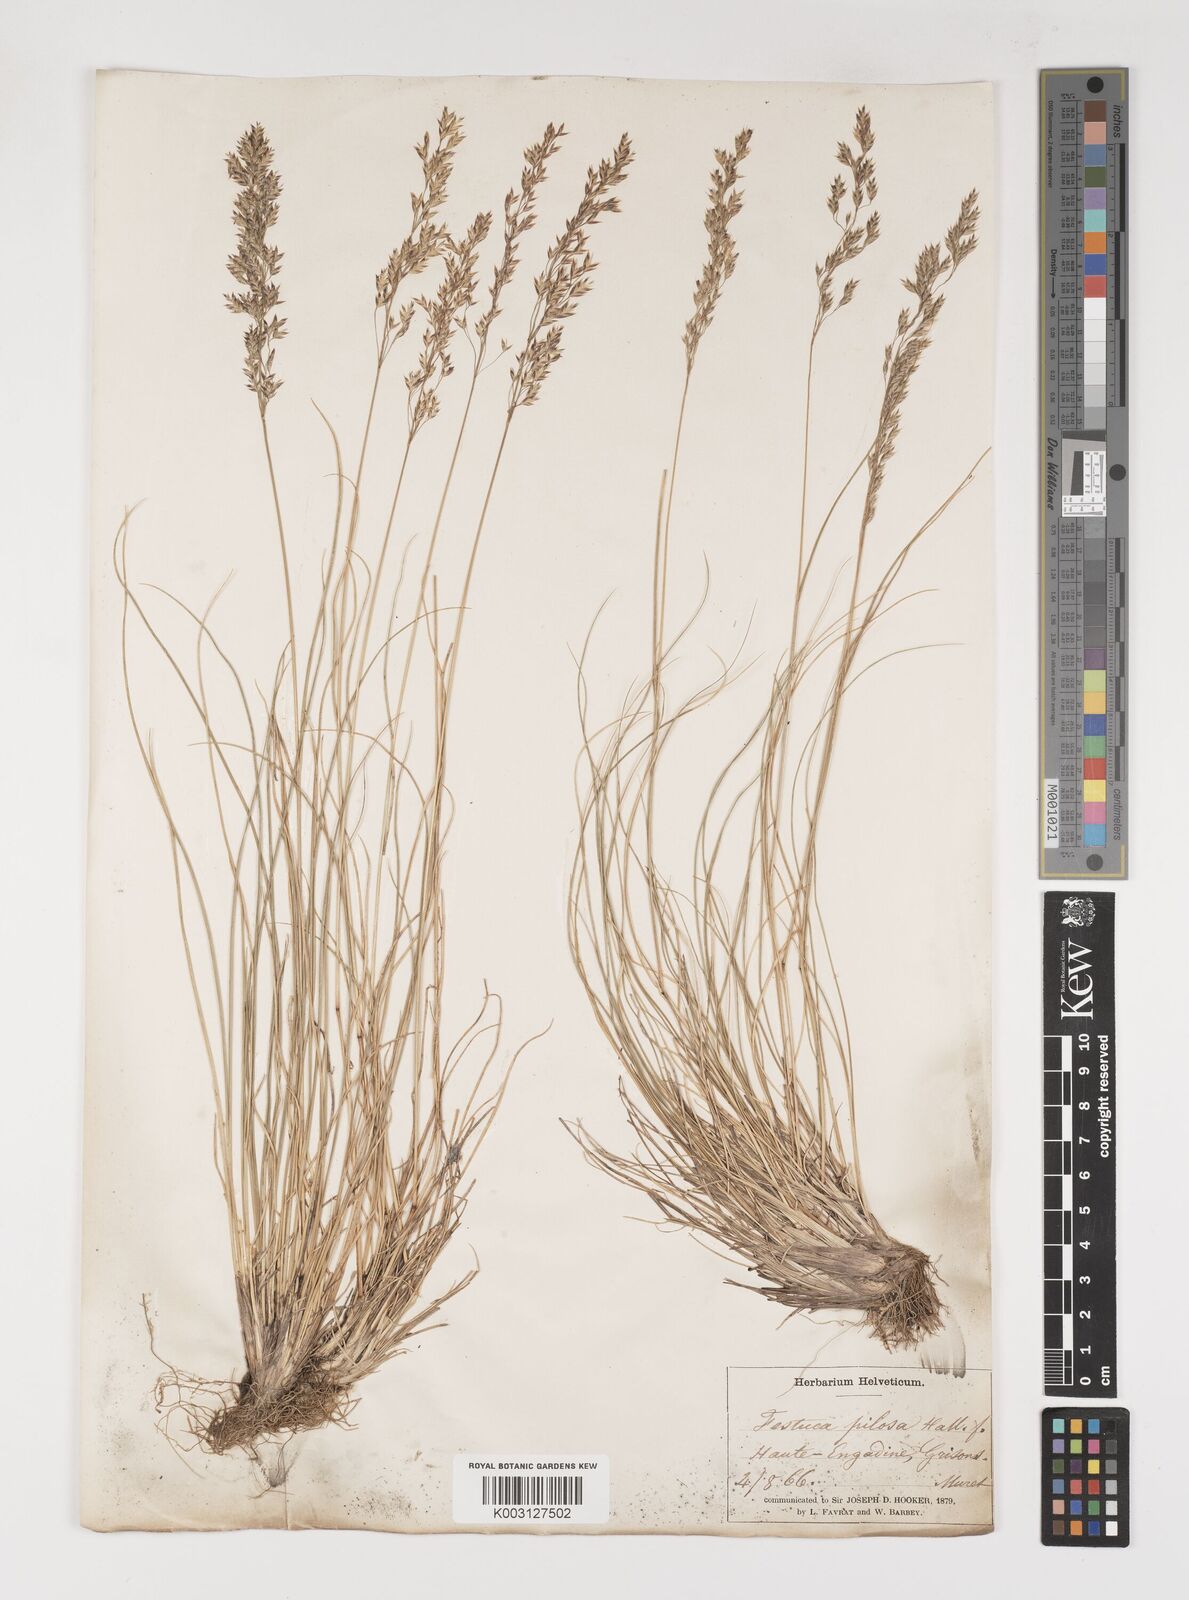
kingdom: Plantae
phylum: Tracheophyta
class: Liliopsida
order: Poales
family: Poaceae
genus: Bellardiochloa
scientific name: Bellardiochloa variegata
